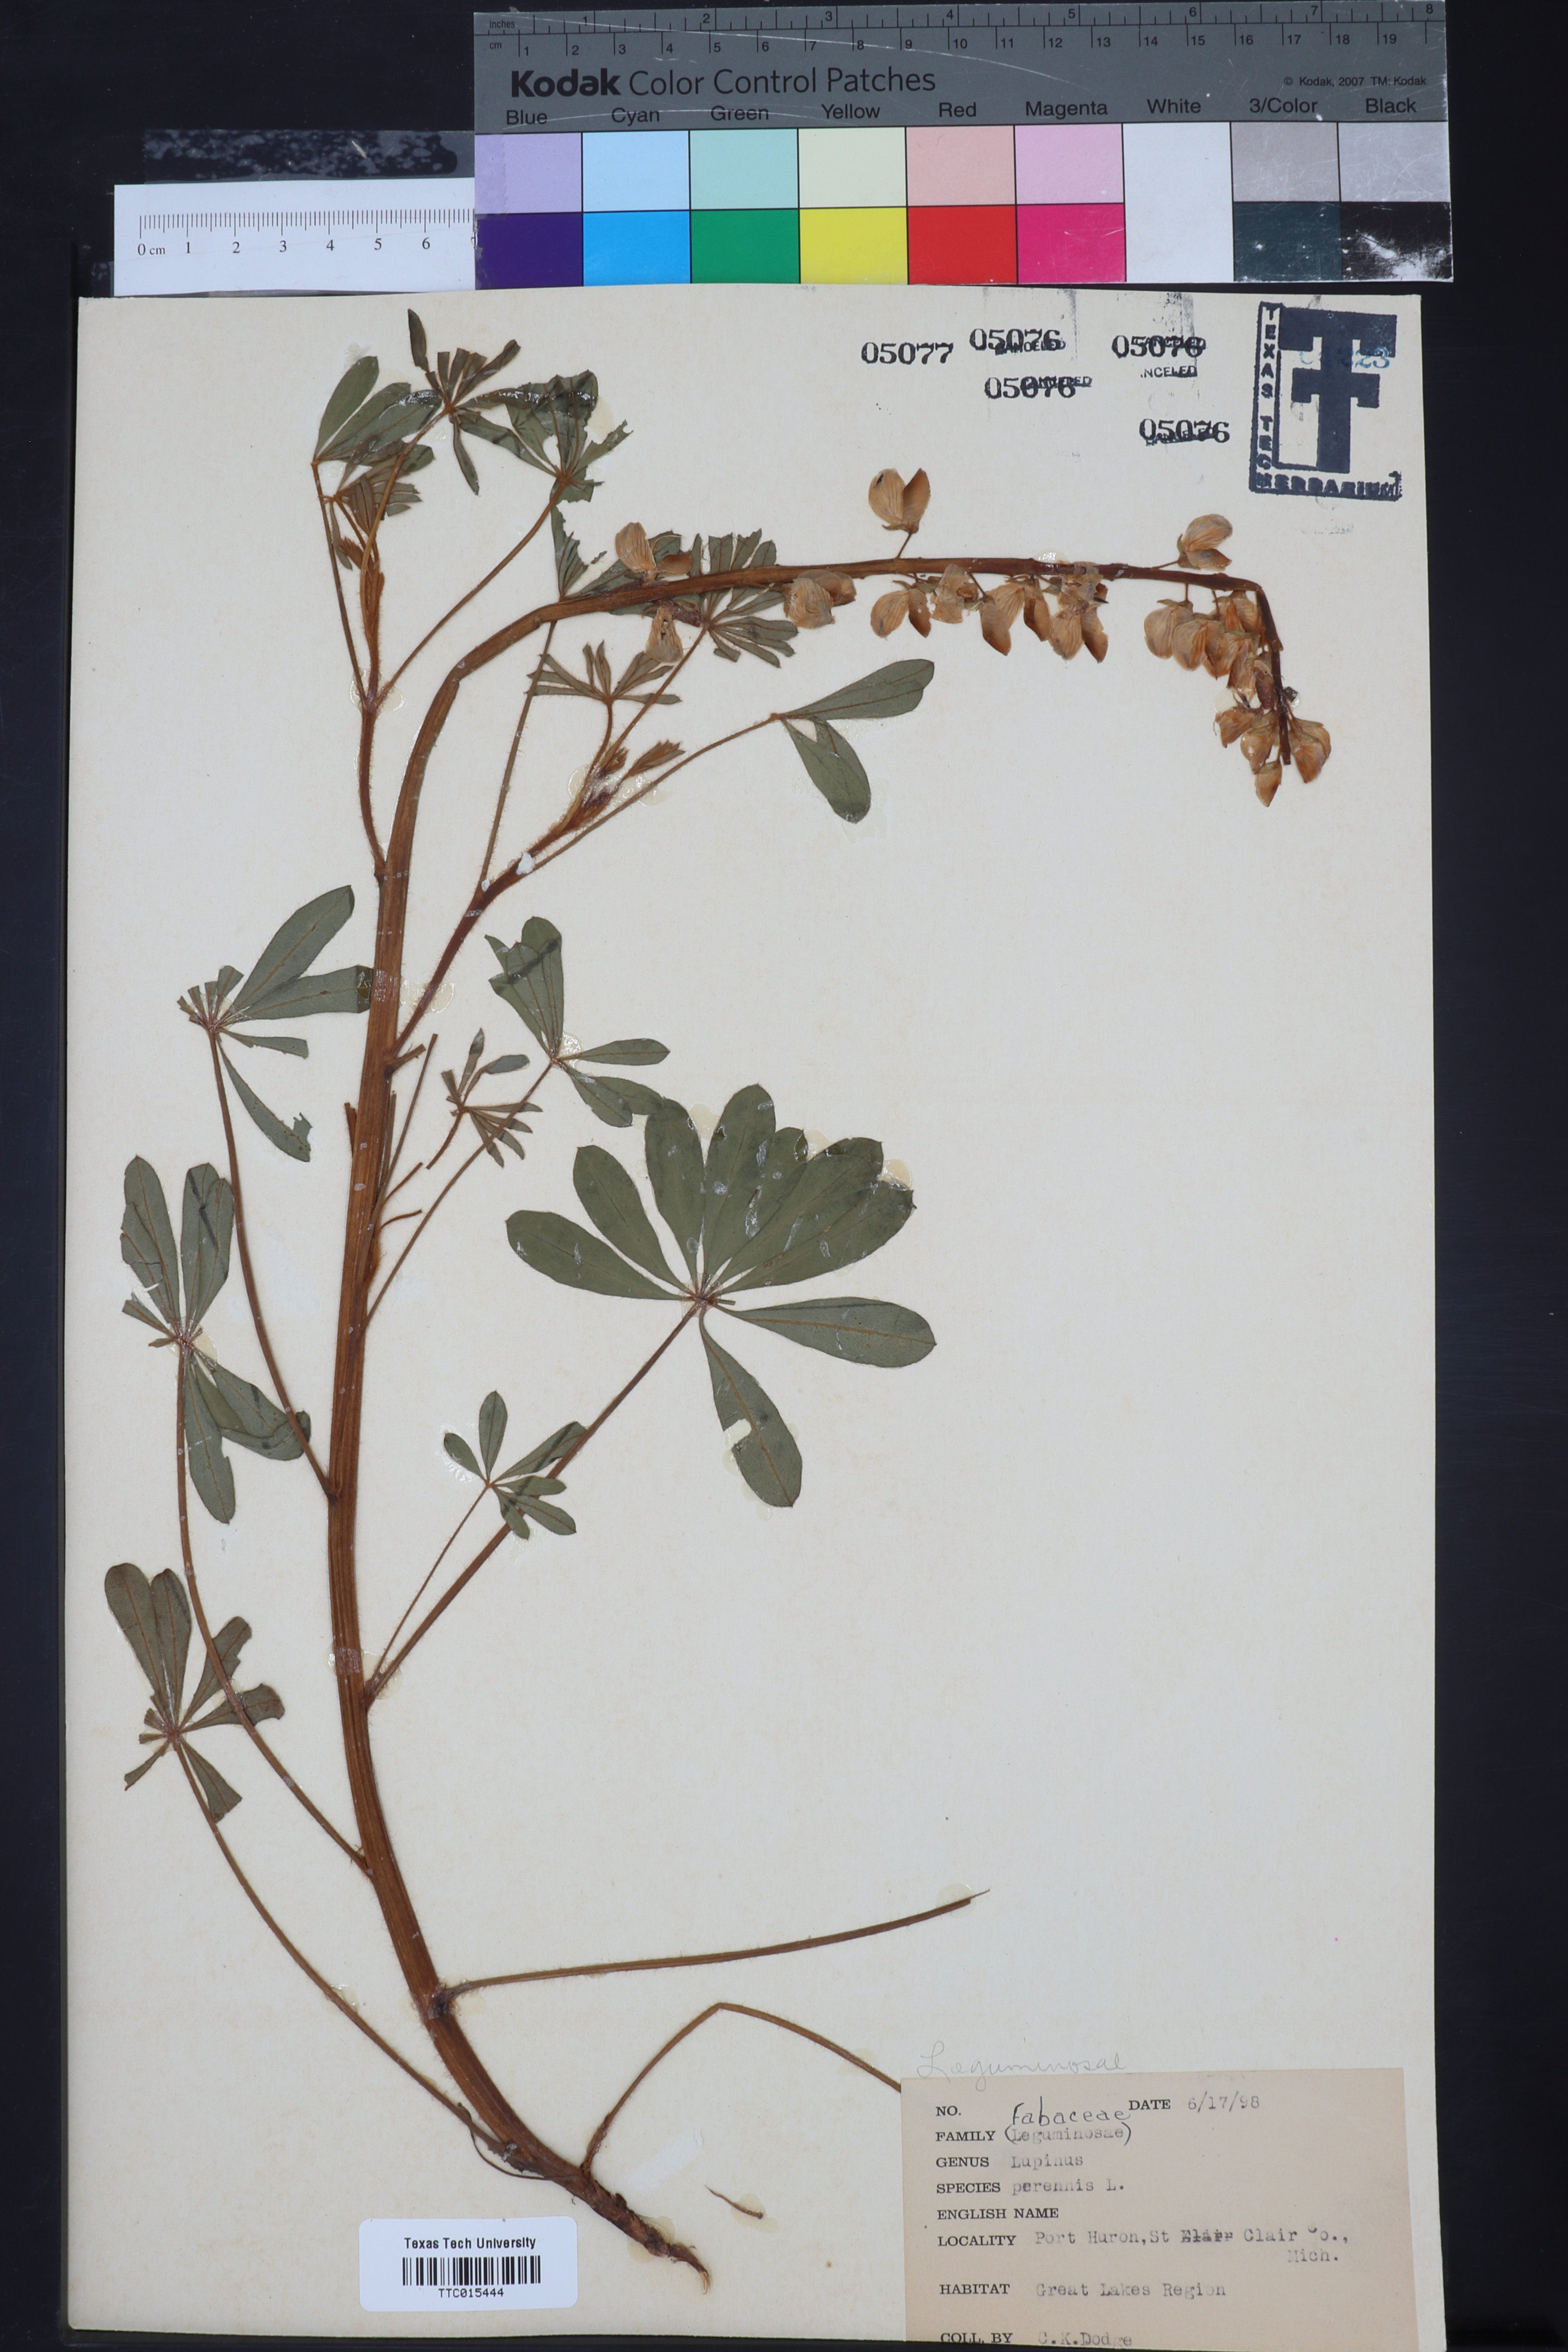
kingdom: Plantae
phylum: Tracheophyta
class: Magnoliopsida
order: Fabales
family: Fabaceae
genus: Lupinus
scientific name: Lupinus perennis
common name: Sundial lupine
